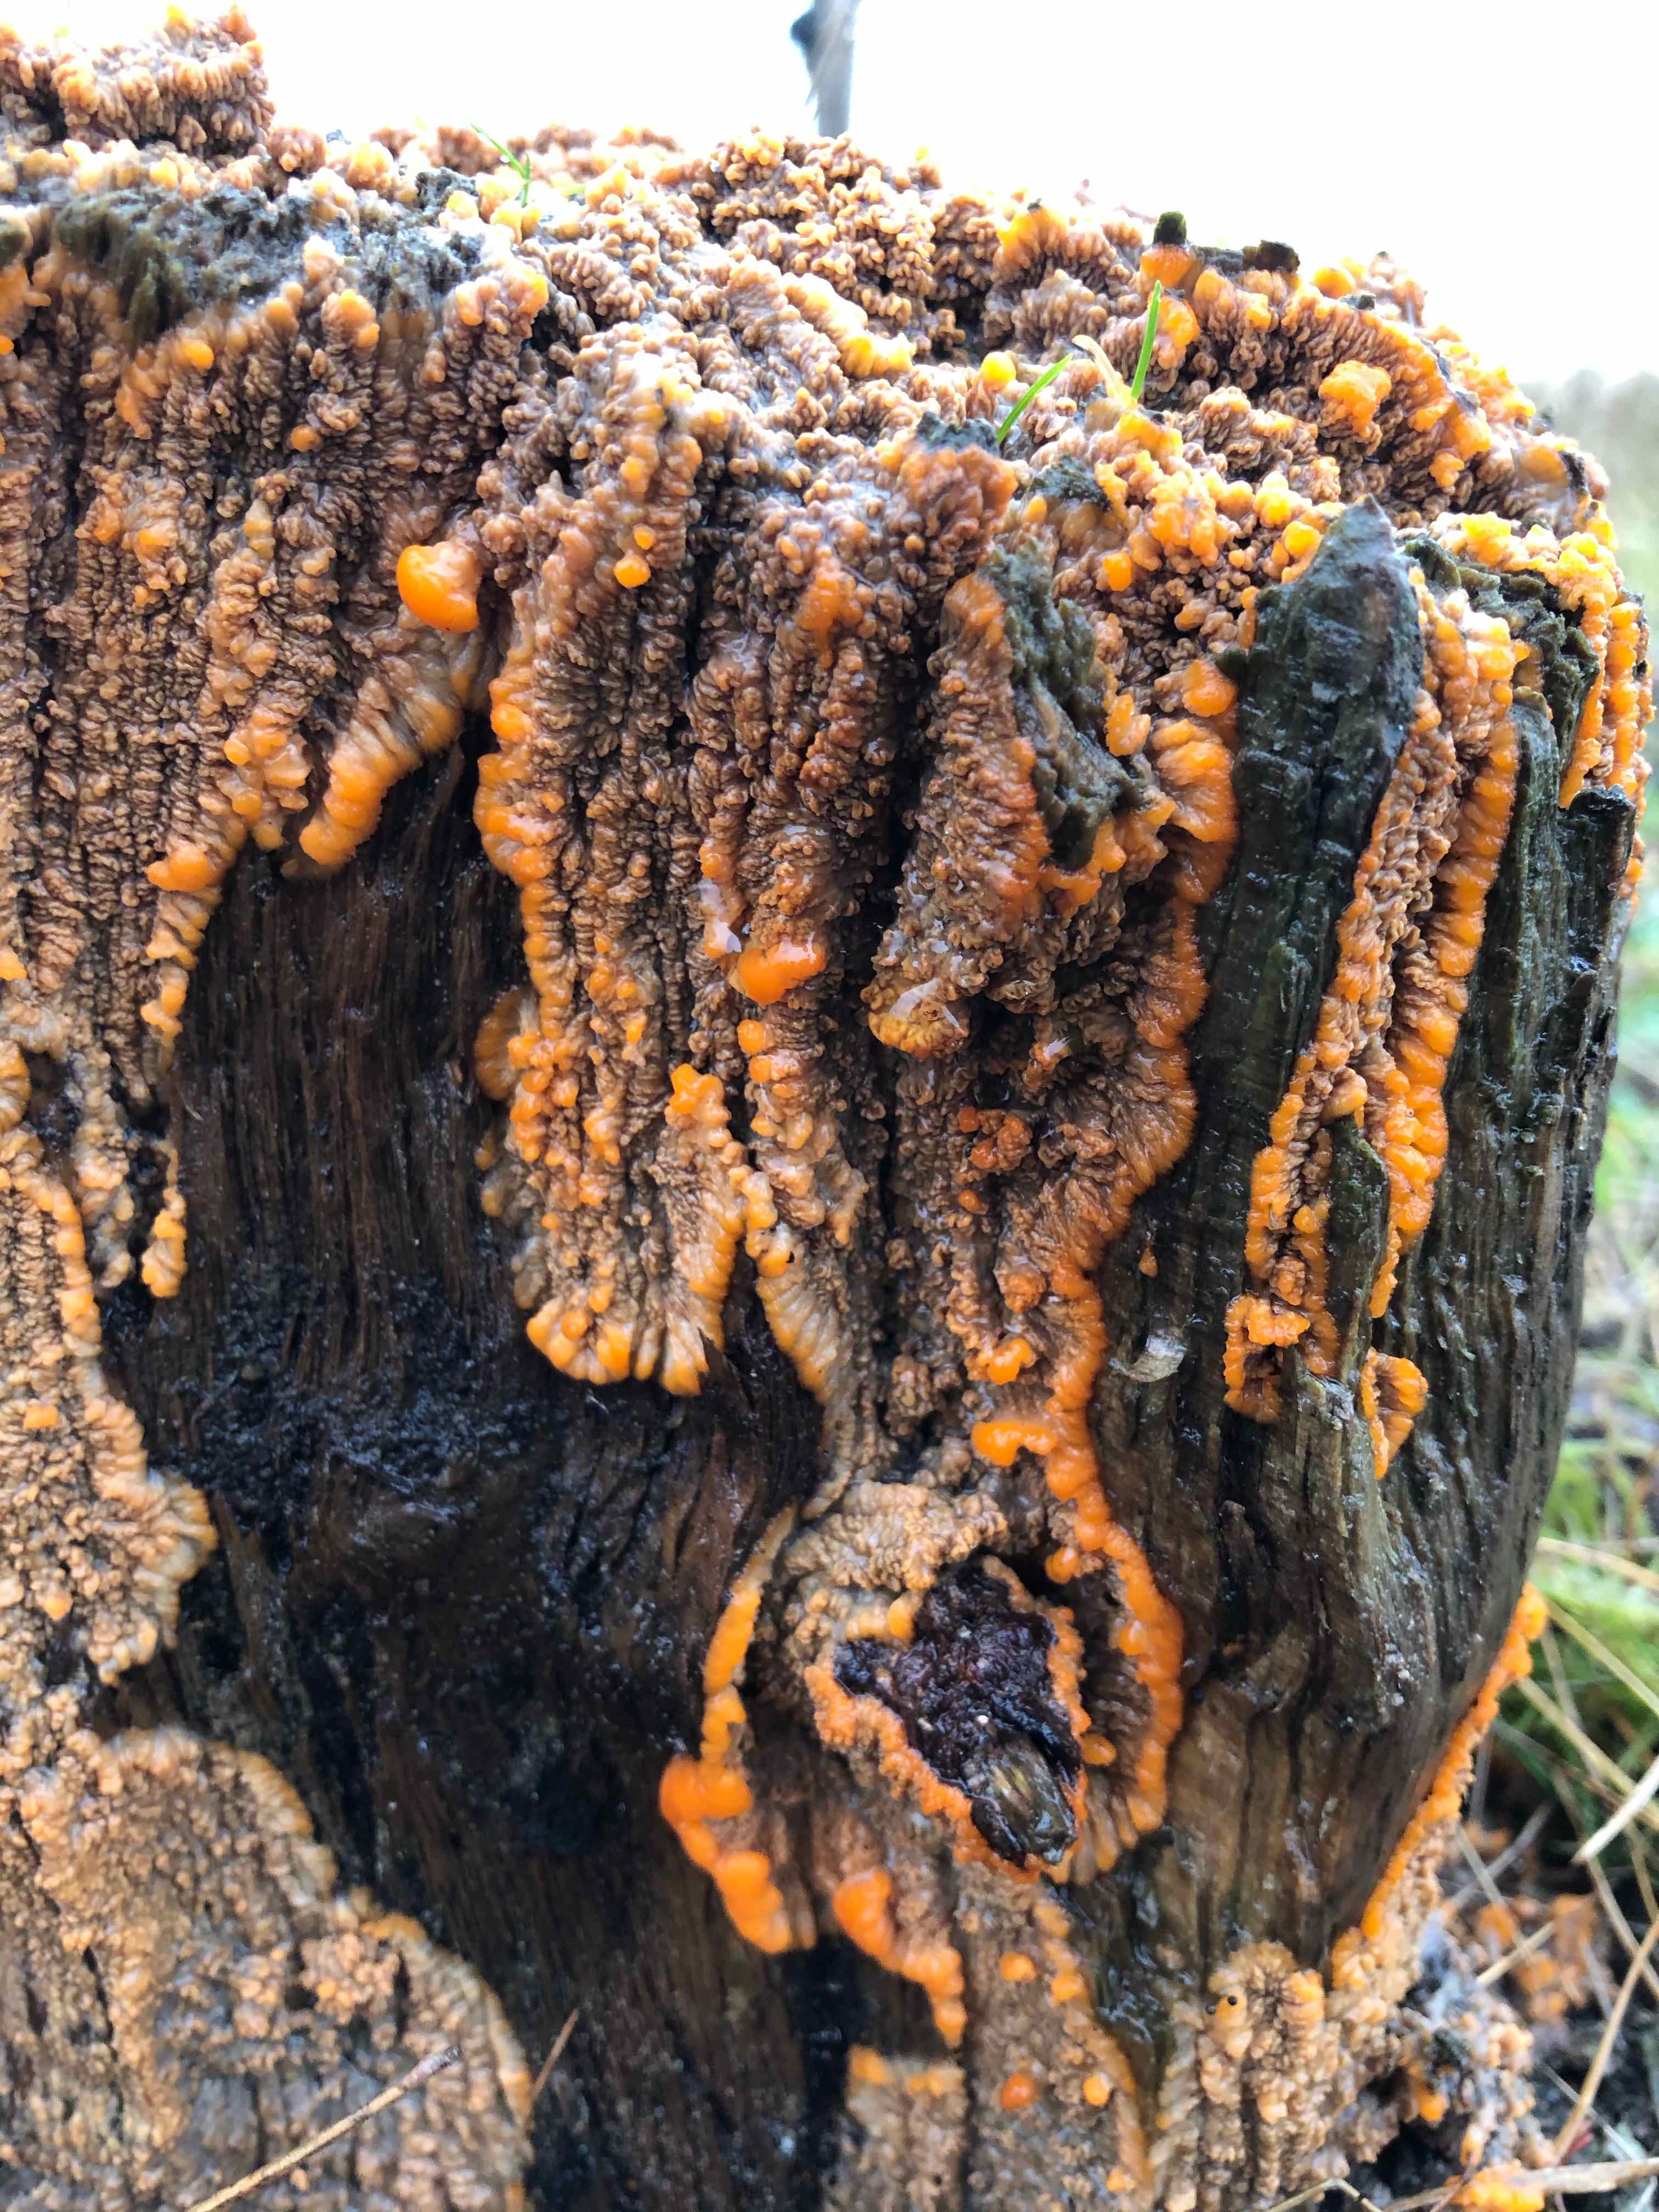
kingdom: Fungi
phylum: Basidiomycota
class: Agaricomycetes
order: Polyporales
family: Meruliaceae
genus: Phlebia
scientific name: Phlebia radiata
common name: stråle-åresvamp
